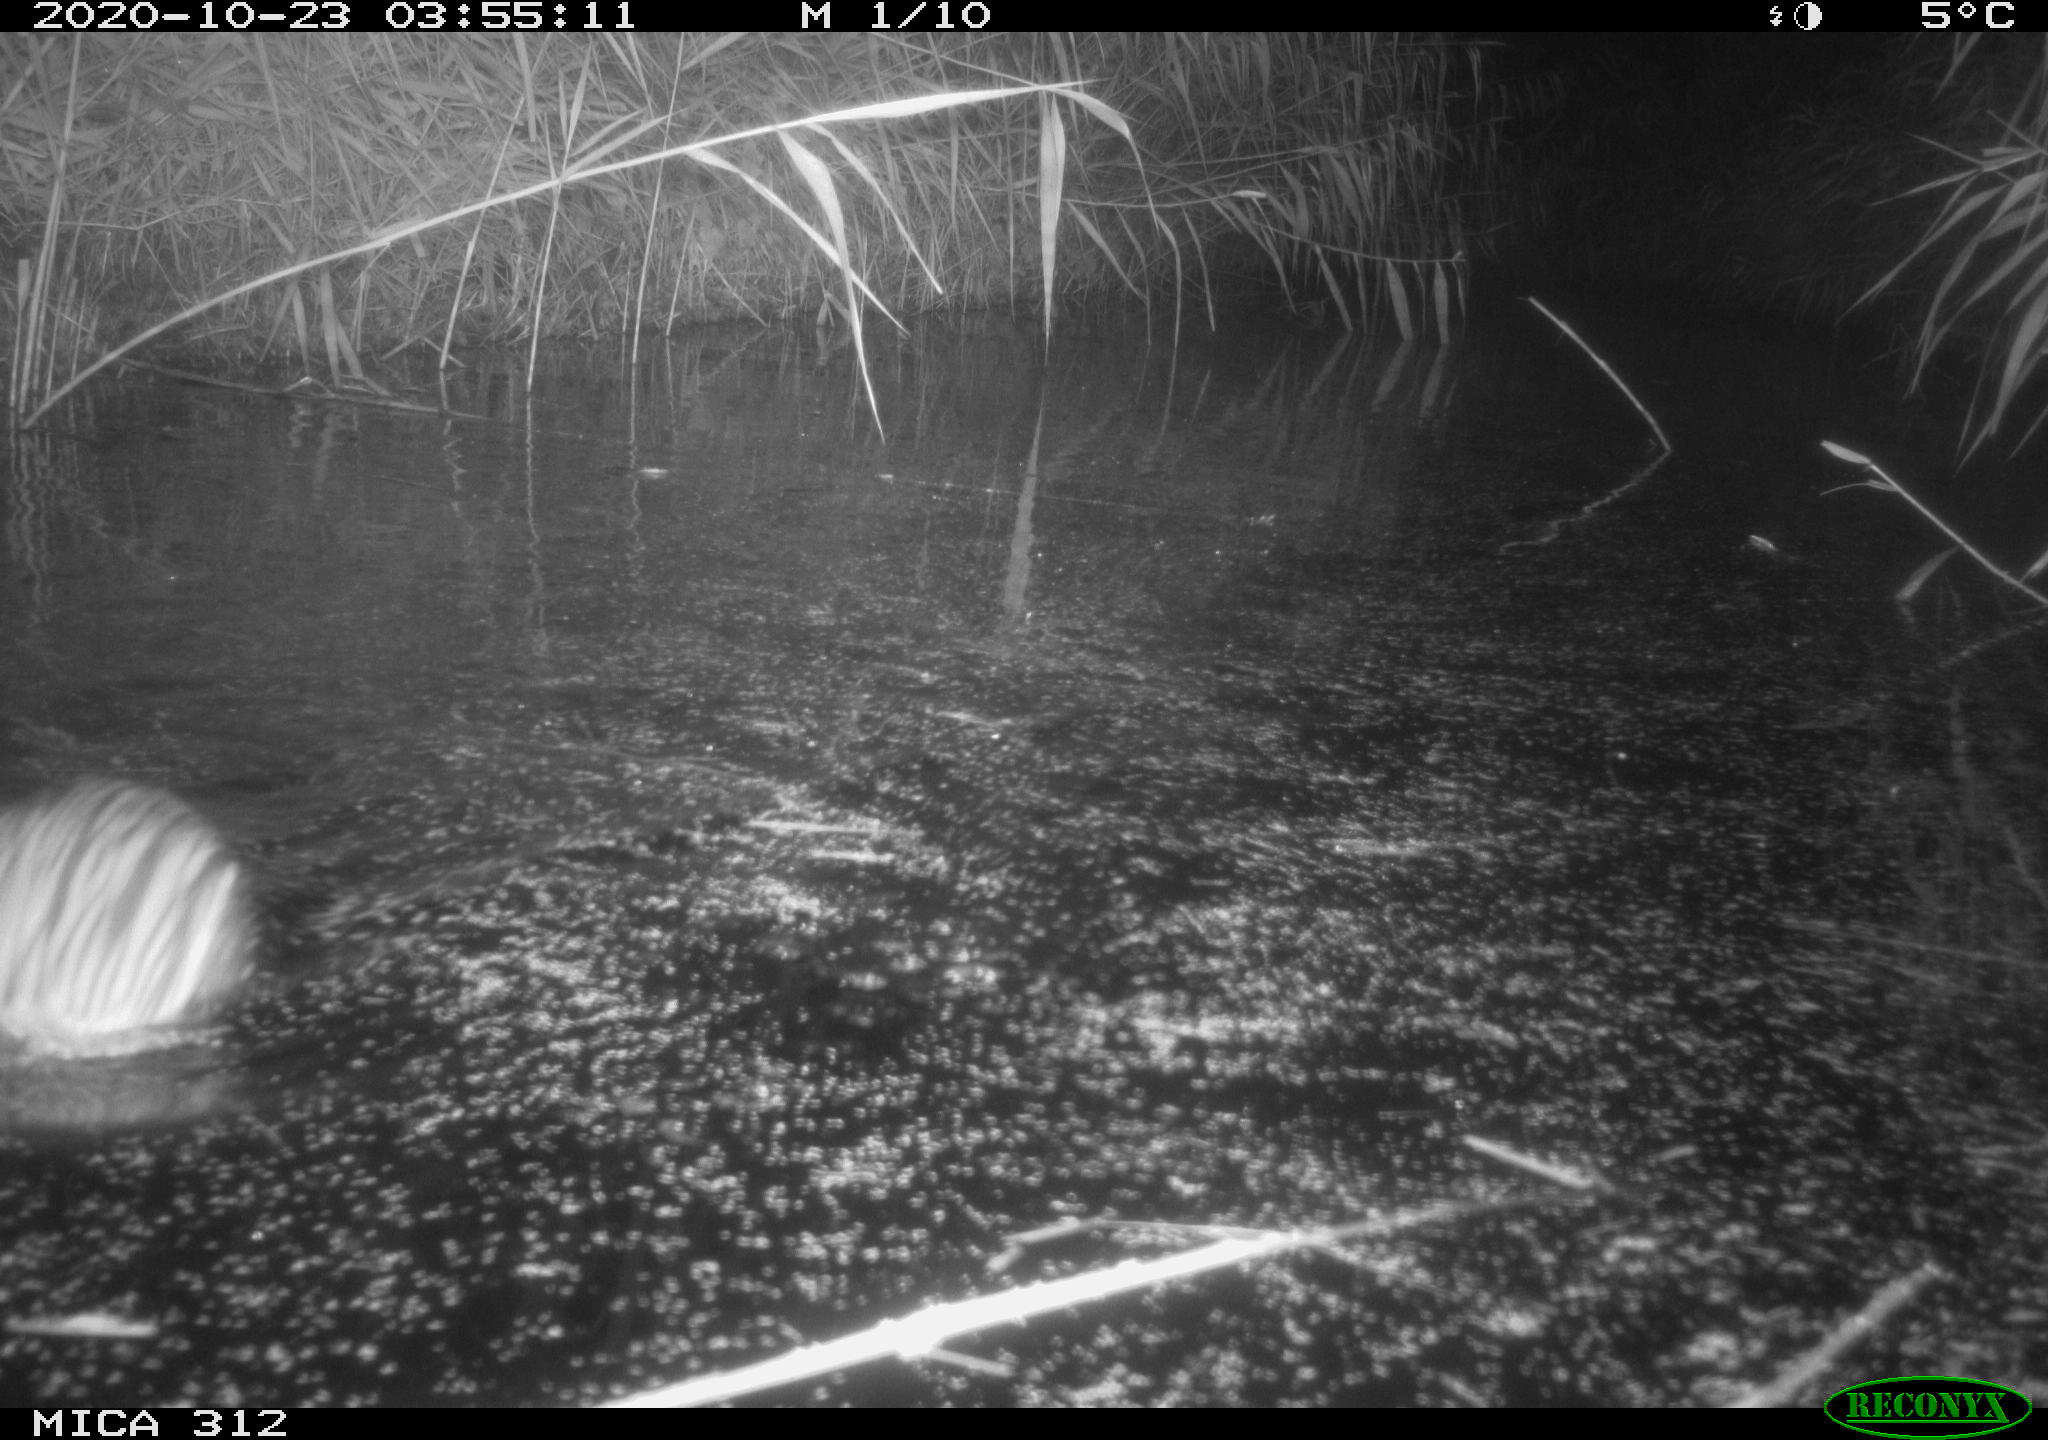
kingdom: Animalia
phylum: Chordata
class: Mammalia
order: Rodentia
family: Cricetidae
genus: Ondatra
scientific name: Ondatra zibethicus
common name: Muskrat
